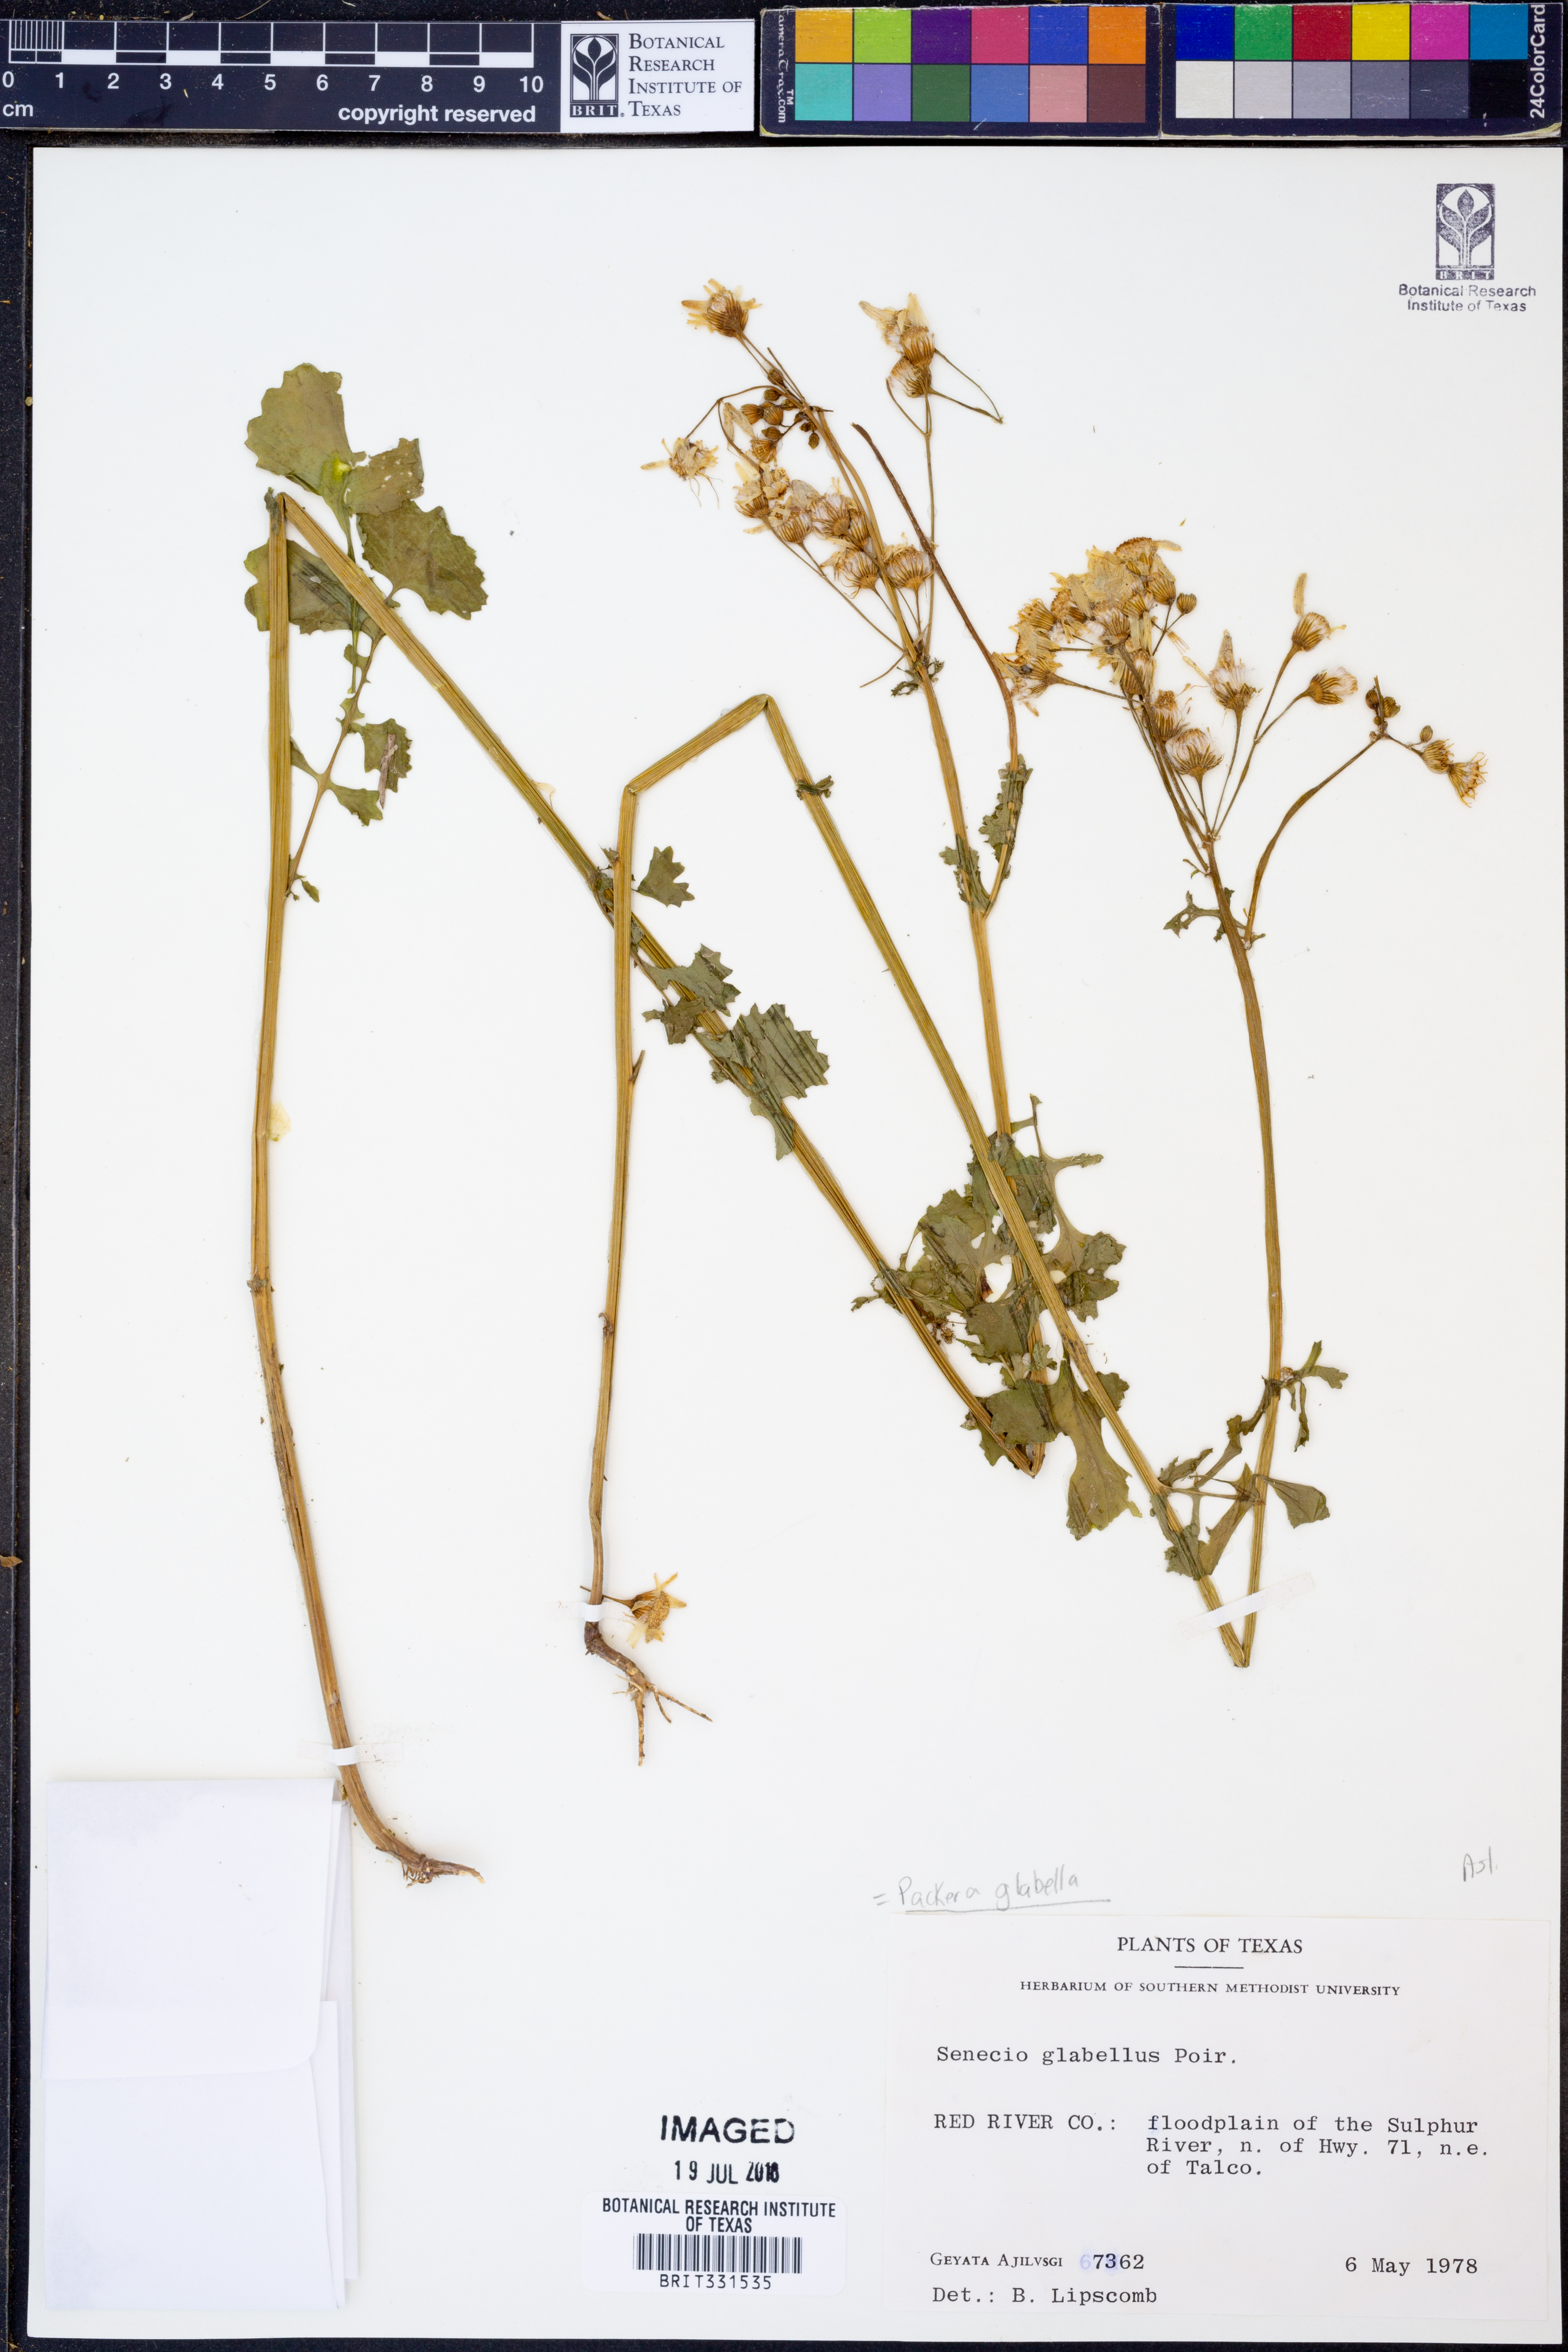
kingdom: Plantae
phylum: Tracheophyta
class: Magnoliopsida
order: Asterales
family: Asteraceae
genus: Packera
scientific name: Packera glabella
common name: Butterweed
